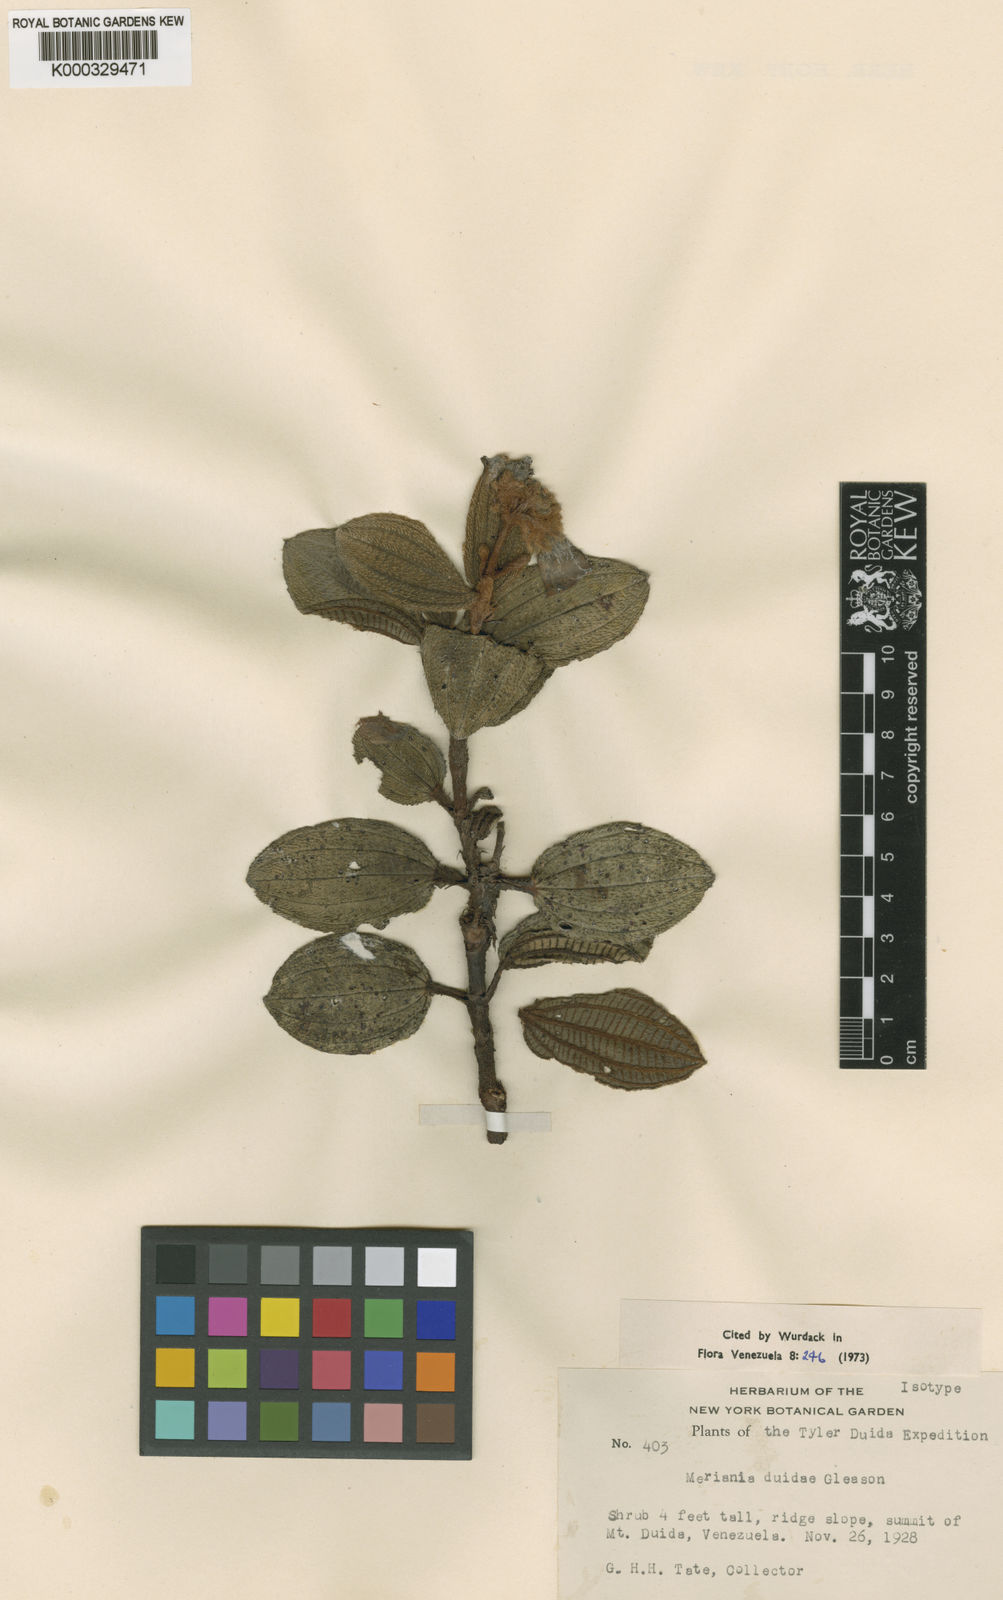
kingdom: Plantae
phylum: Tracheophyta
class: Magnoliopsida
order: Myrtales
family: Melastomataceae
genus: Adelobotrys
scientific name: Adelobotrys duidae
